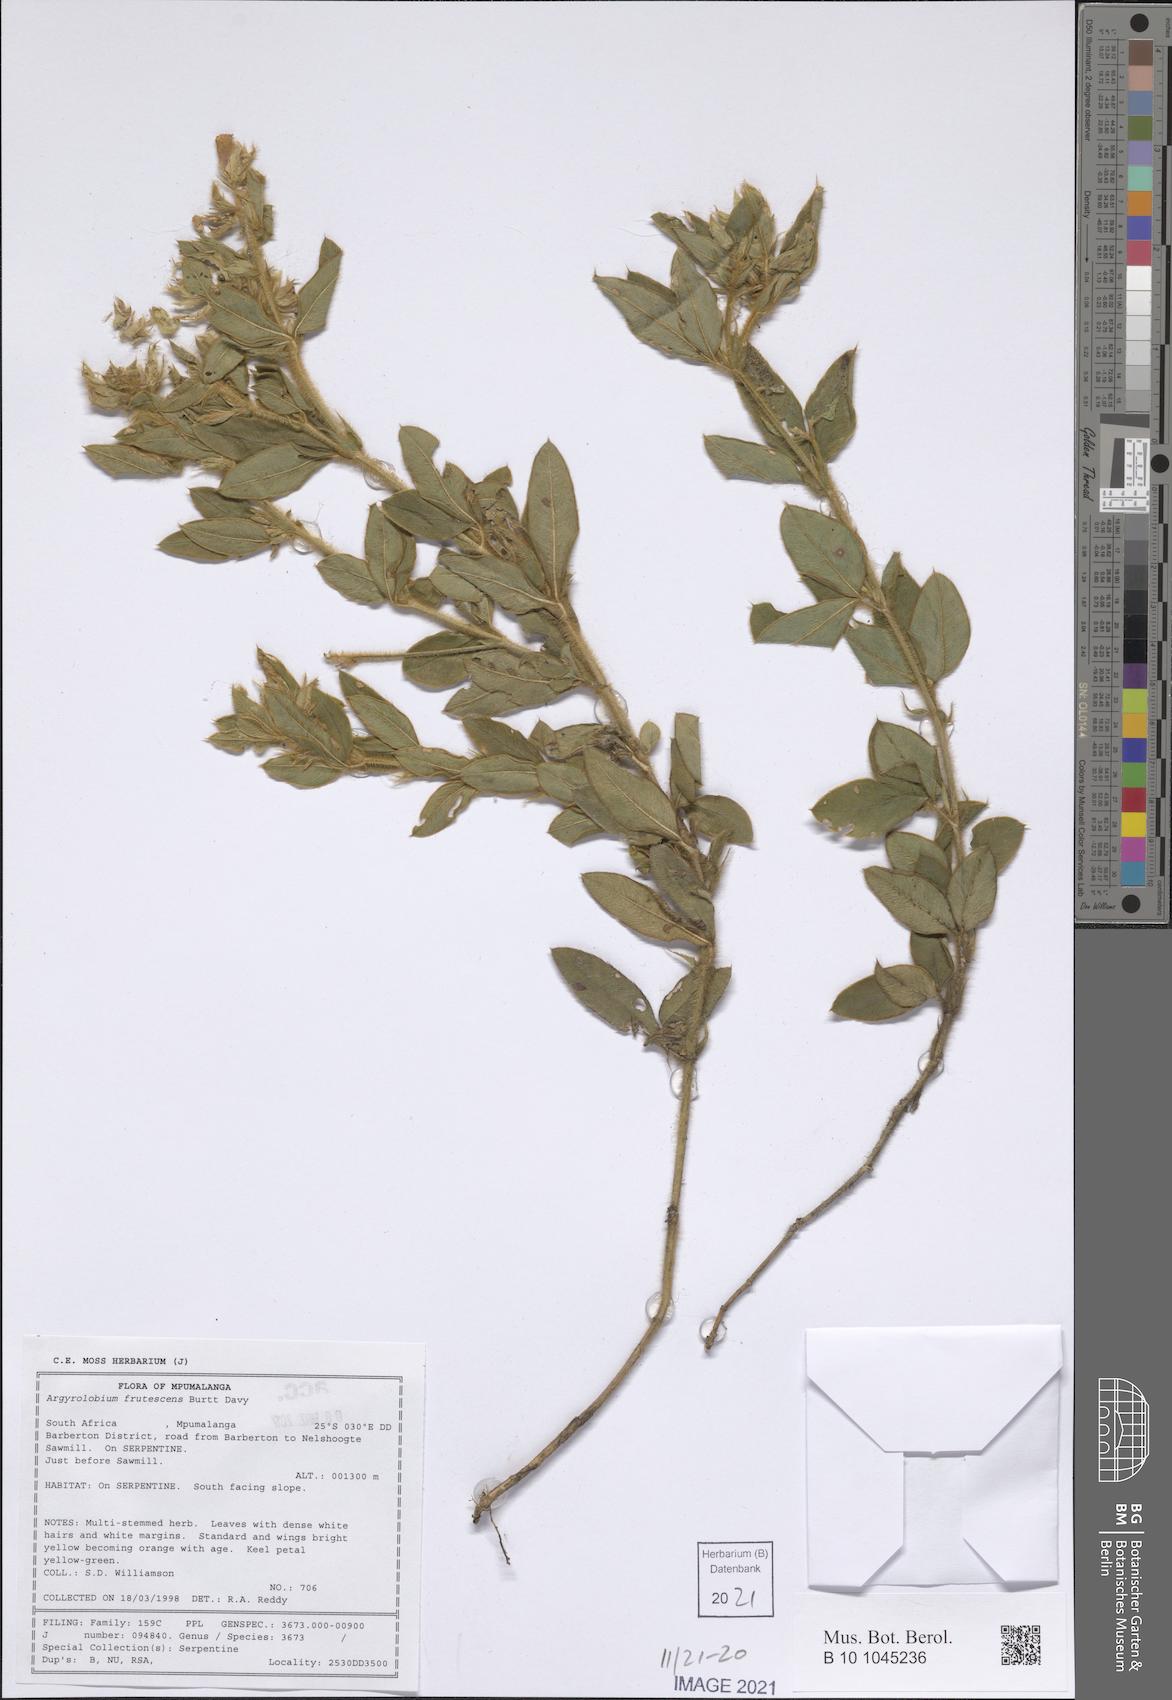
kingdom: Plantae
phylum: Tracheophyta
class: Magnoliopsida
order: Fabales
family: Fabaceae
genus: Argyrolobium
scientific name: Argyrolobium frutescens
